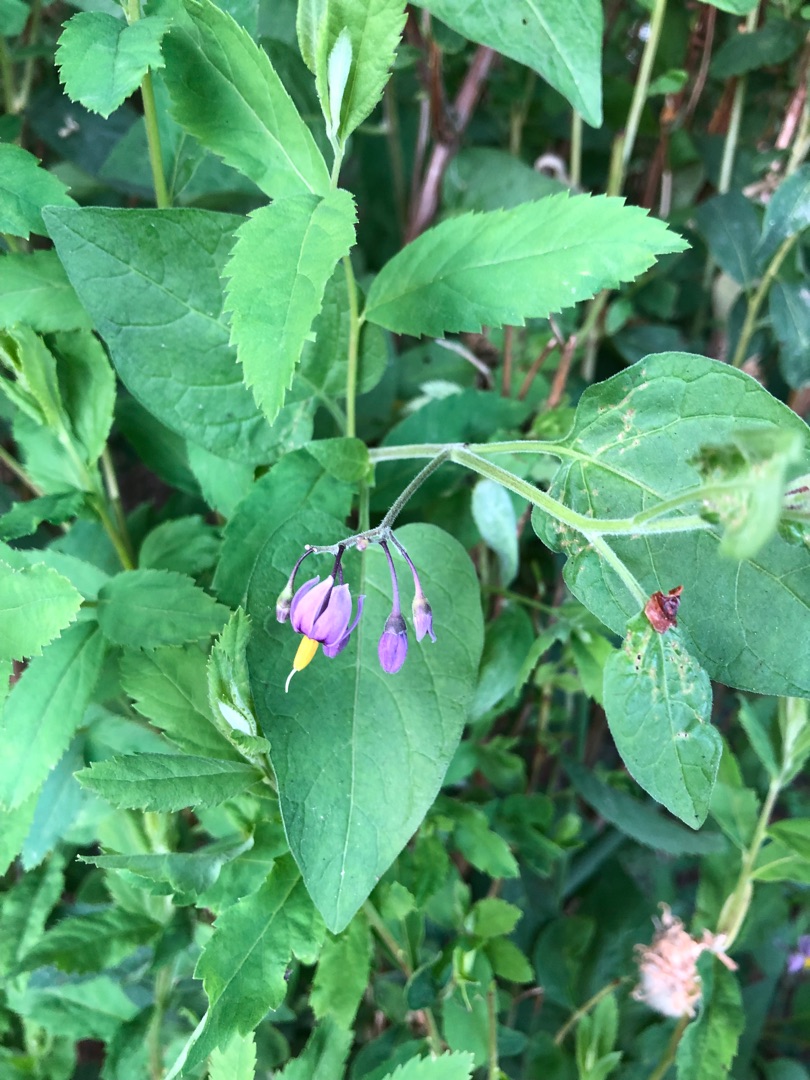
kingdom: Plantae
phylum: Tracheophyta
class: Magnoliopsida
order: Solanales
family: Solanaceae
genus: Solanum
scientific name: Solanum dulcamara
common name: Bittersød natskygge
